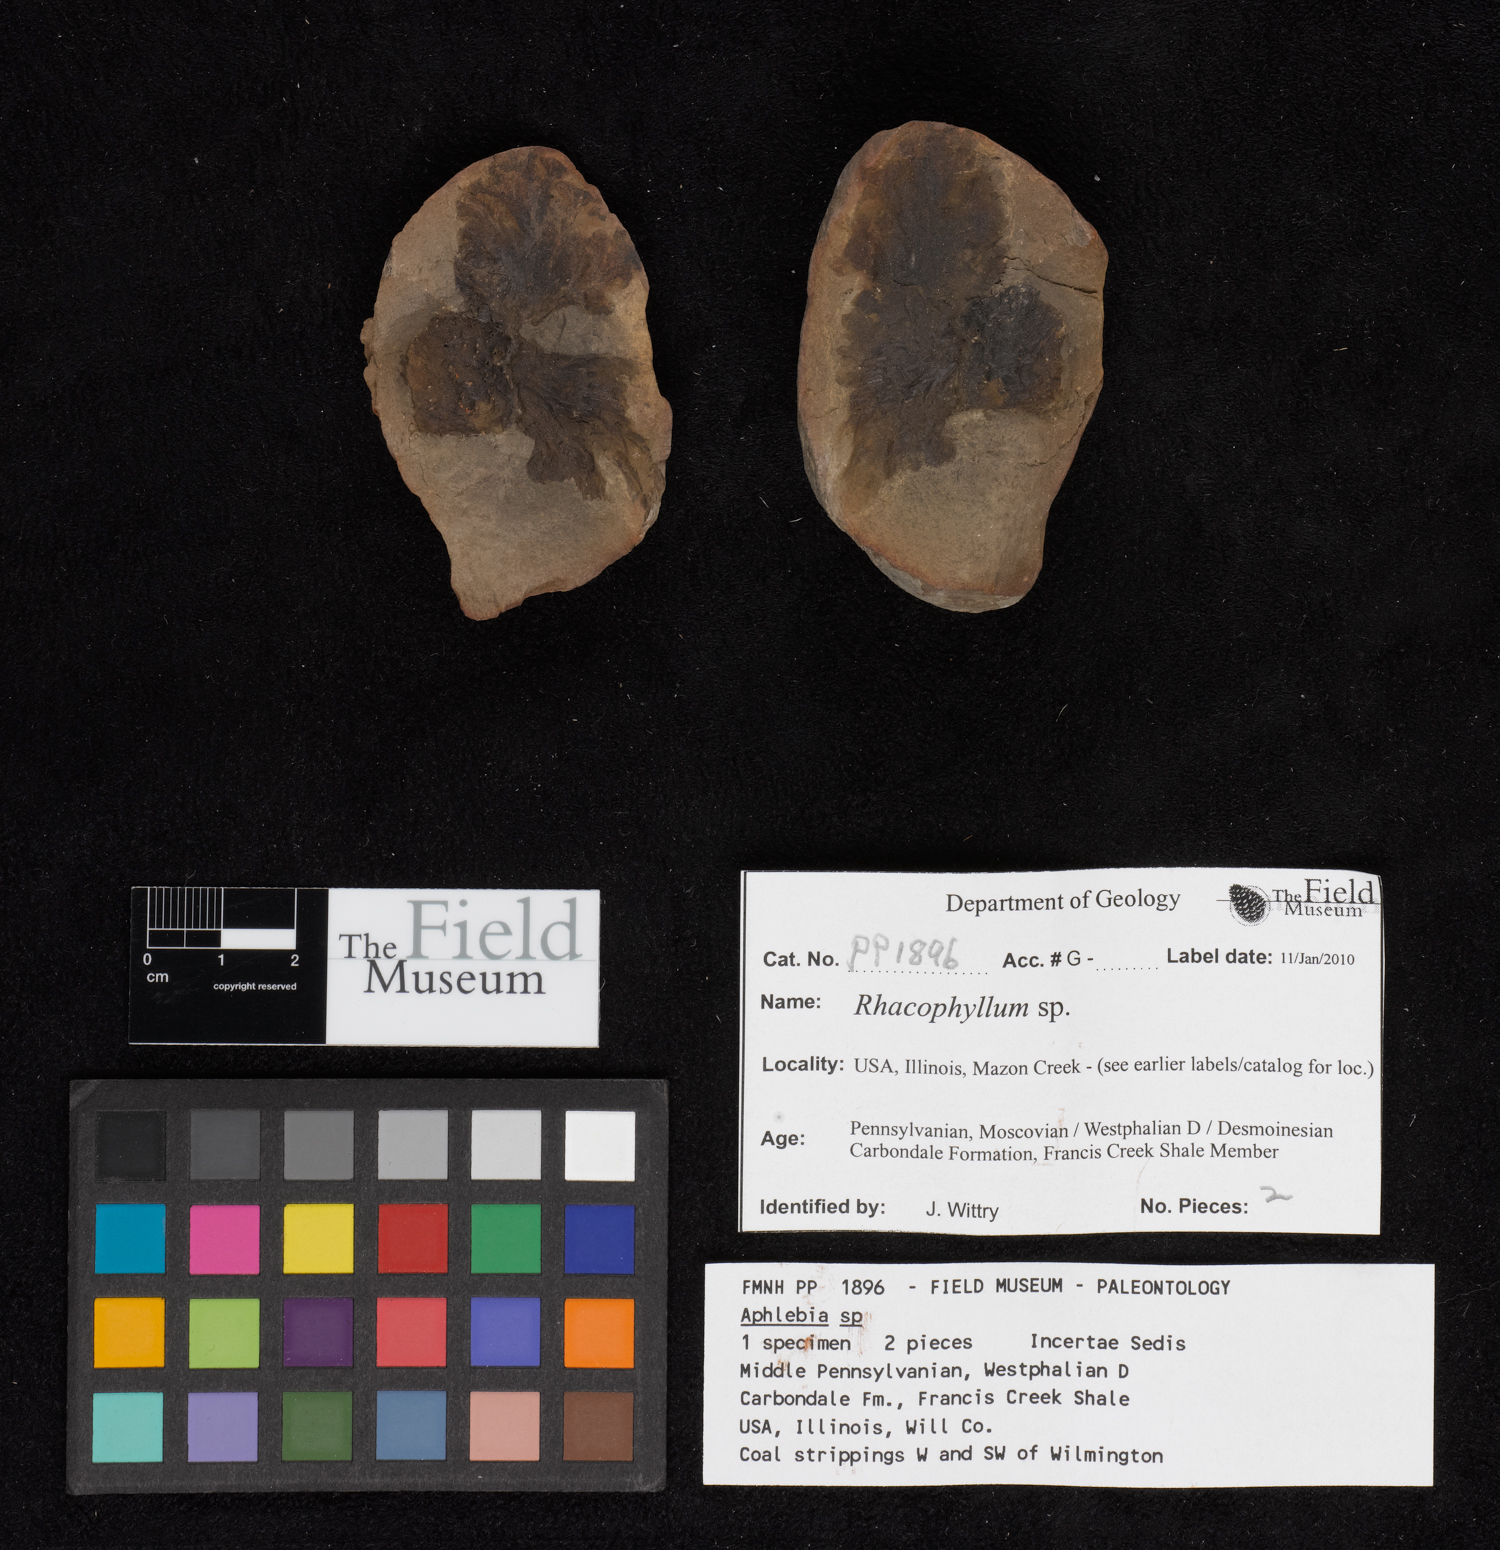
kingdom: Plantae
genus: Rhacophyllum
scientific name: Rhacophyllum
